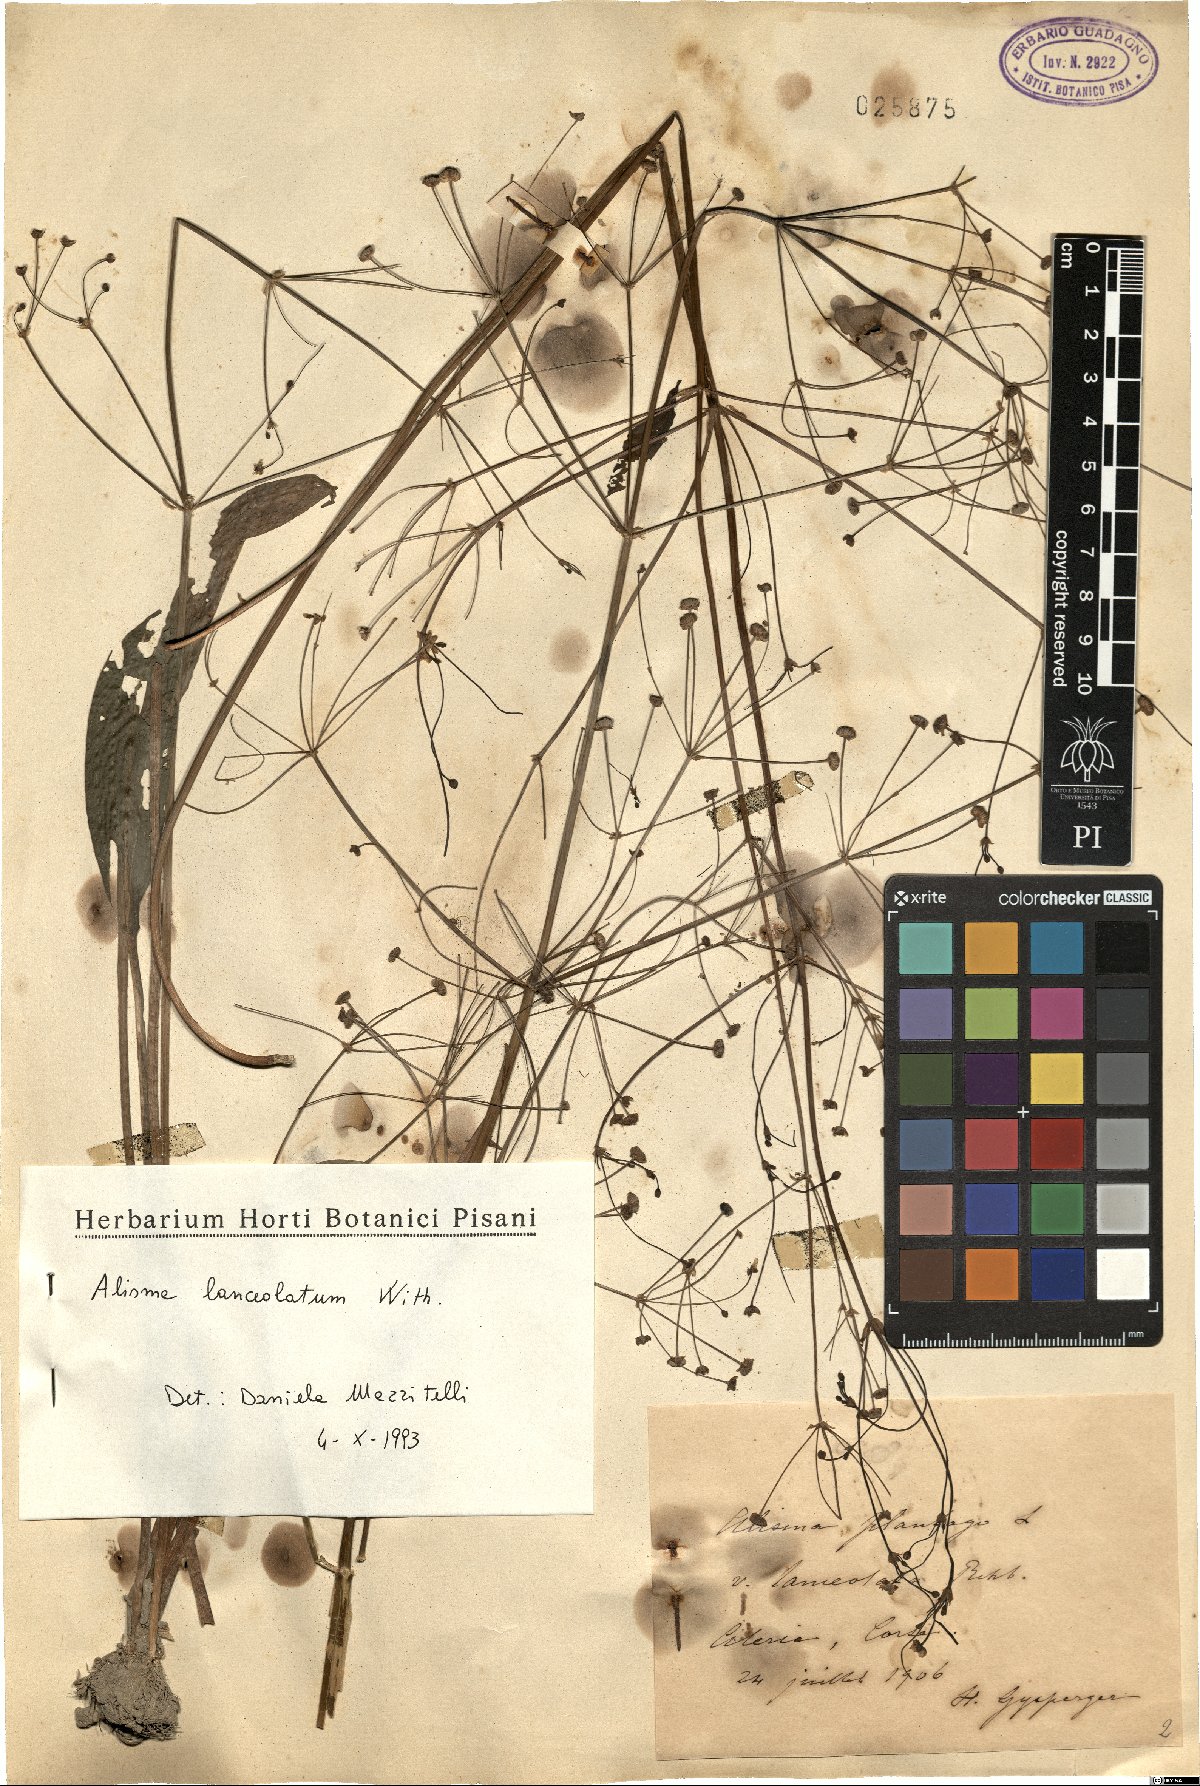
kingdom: Plantae
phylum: Tracheophyta
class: Liliopsida
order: Alismatales
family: Alismataceae
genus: Alisma
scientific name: Alisma lanceolatum
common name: Narrow-leaved water-plantain
